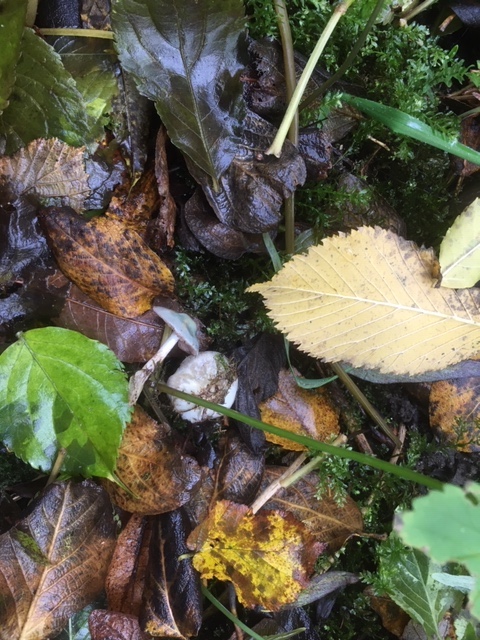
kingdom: Fungi
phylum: Basidiomycota
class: Agaricomycetes
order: Agaricales
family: Strophariaceae
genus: Stropharia
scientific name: Stropharia pseudocyanea
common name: blegblå bredblad
